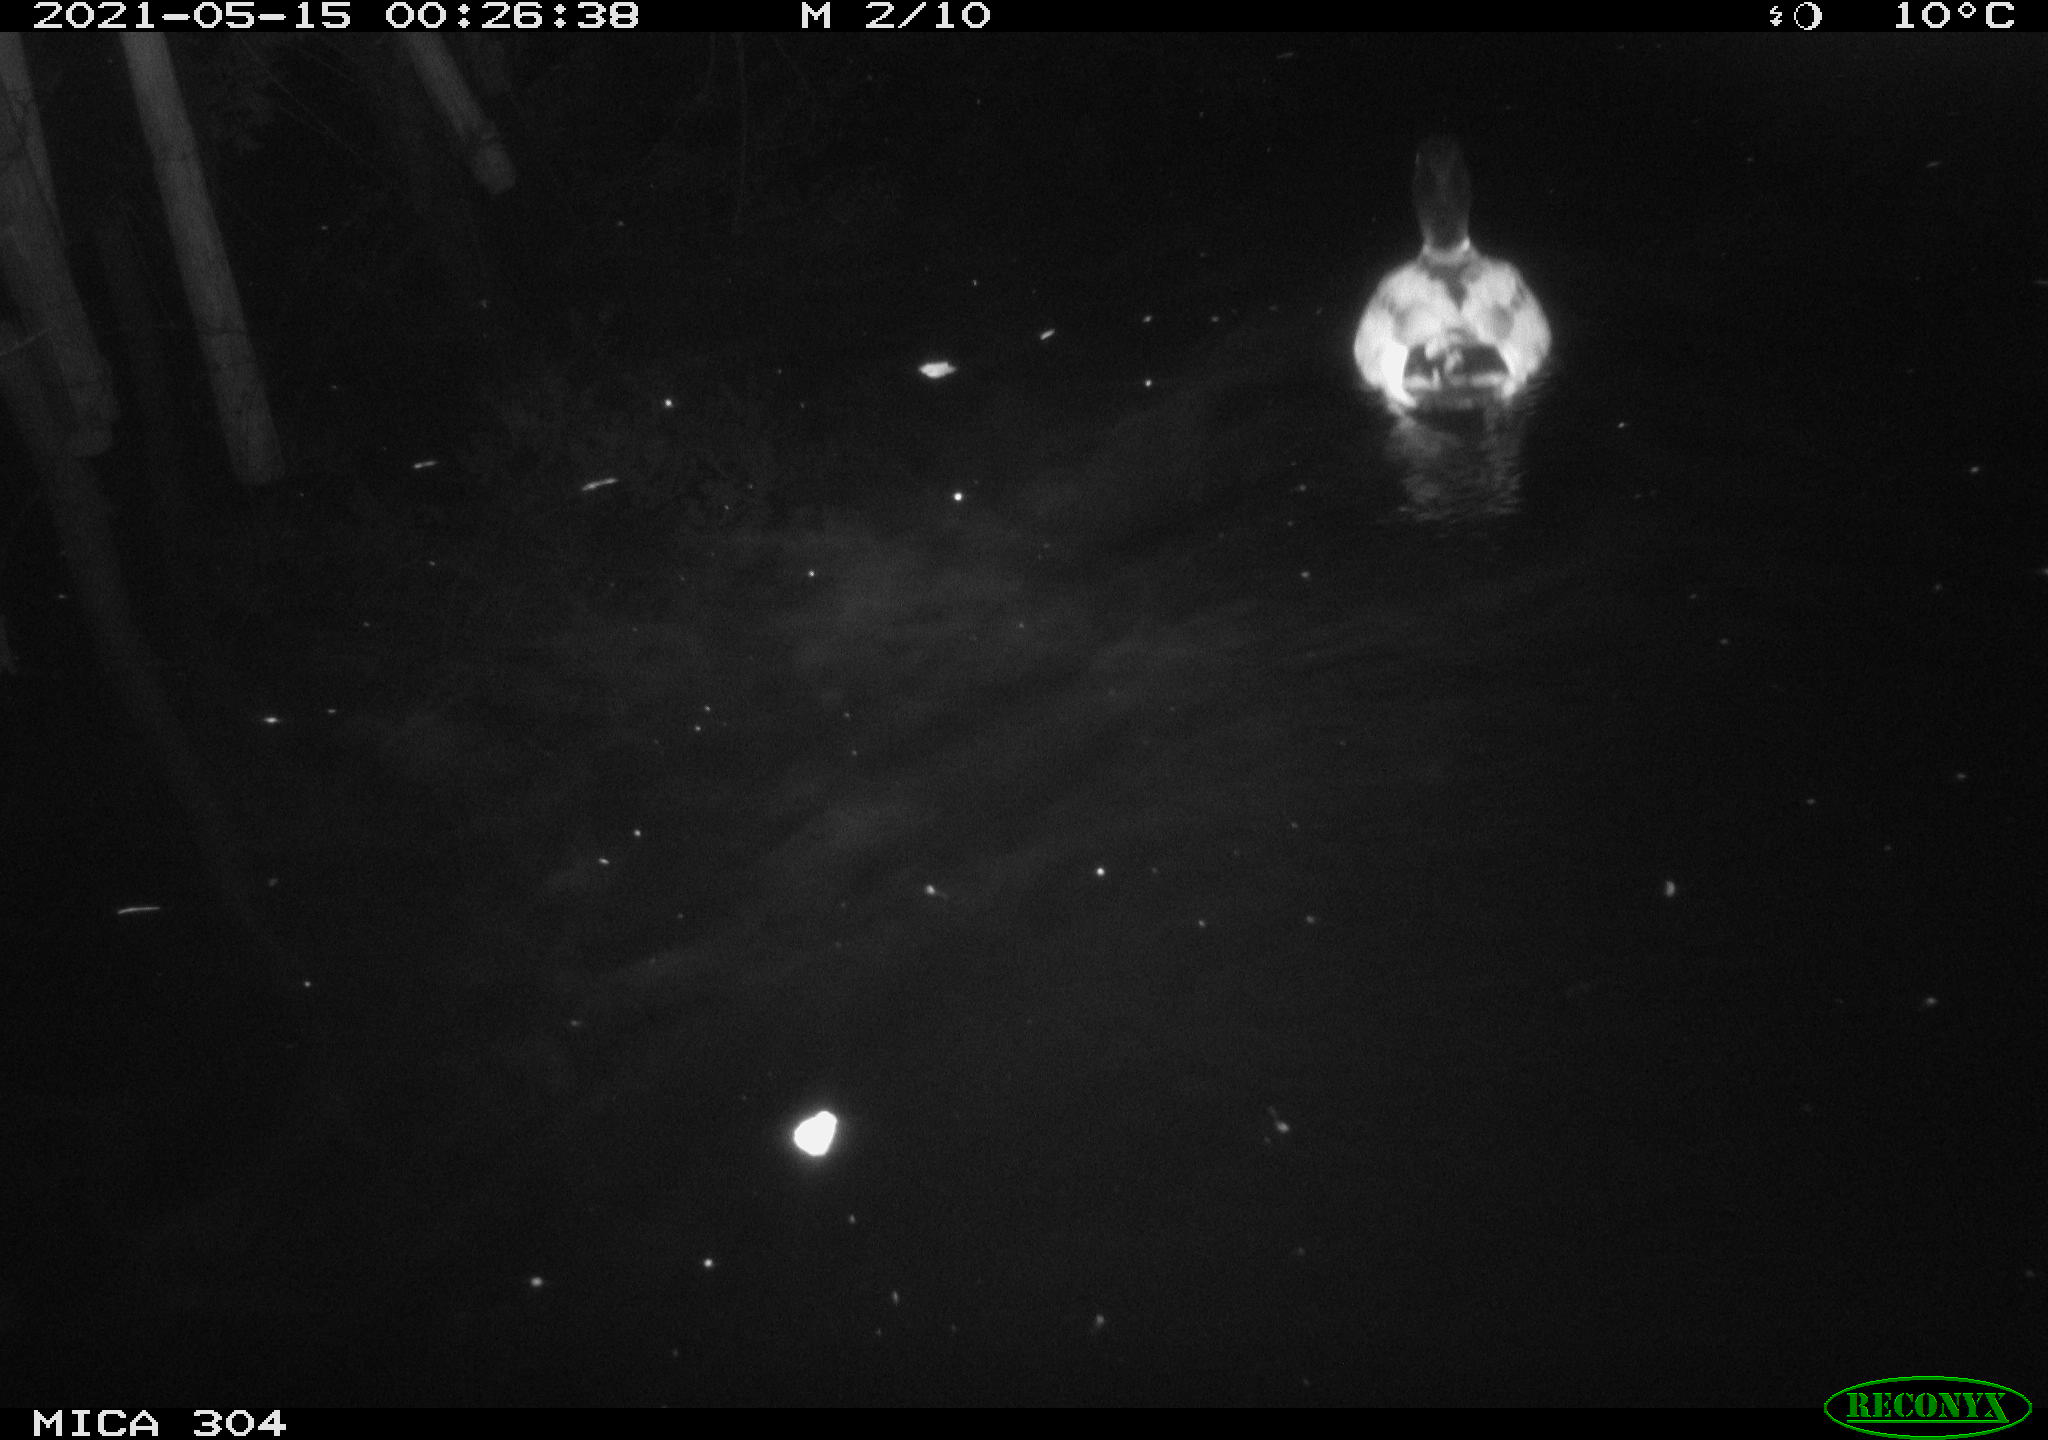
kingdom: Animalia
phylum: Chordata
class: Aves
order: Anseriformes
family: Anatidae
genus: Anas
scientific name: Anas platyrhynchos
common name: Mallard
